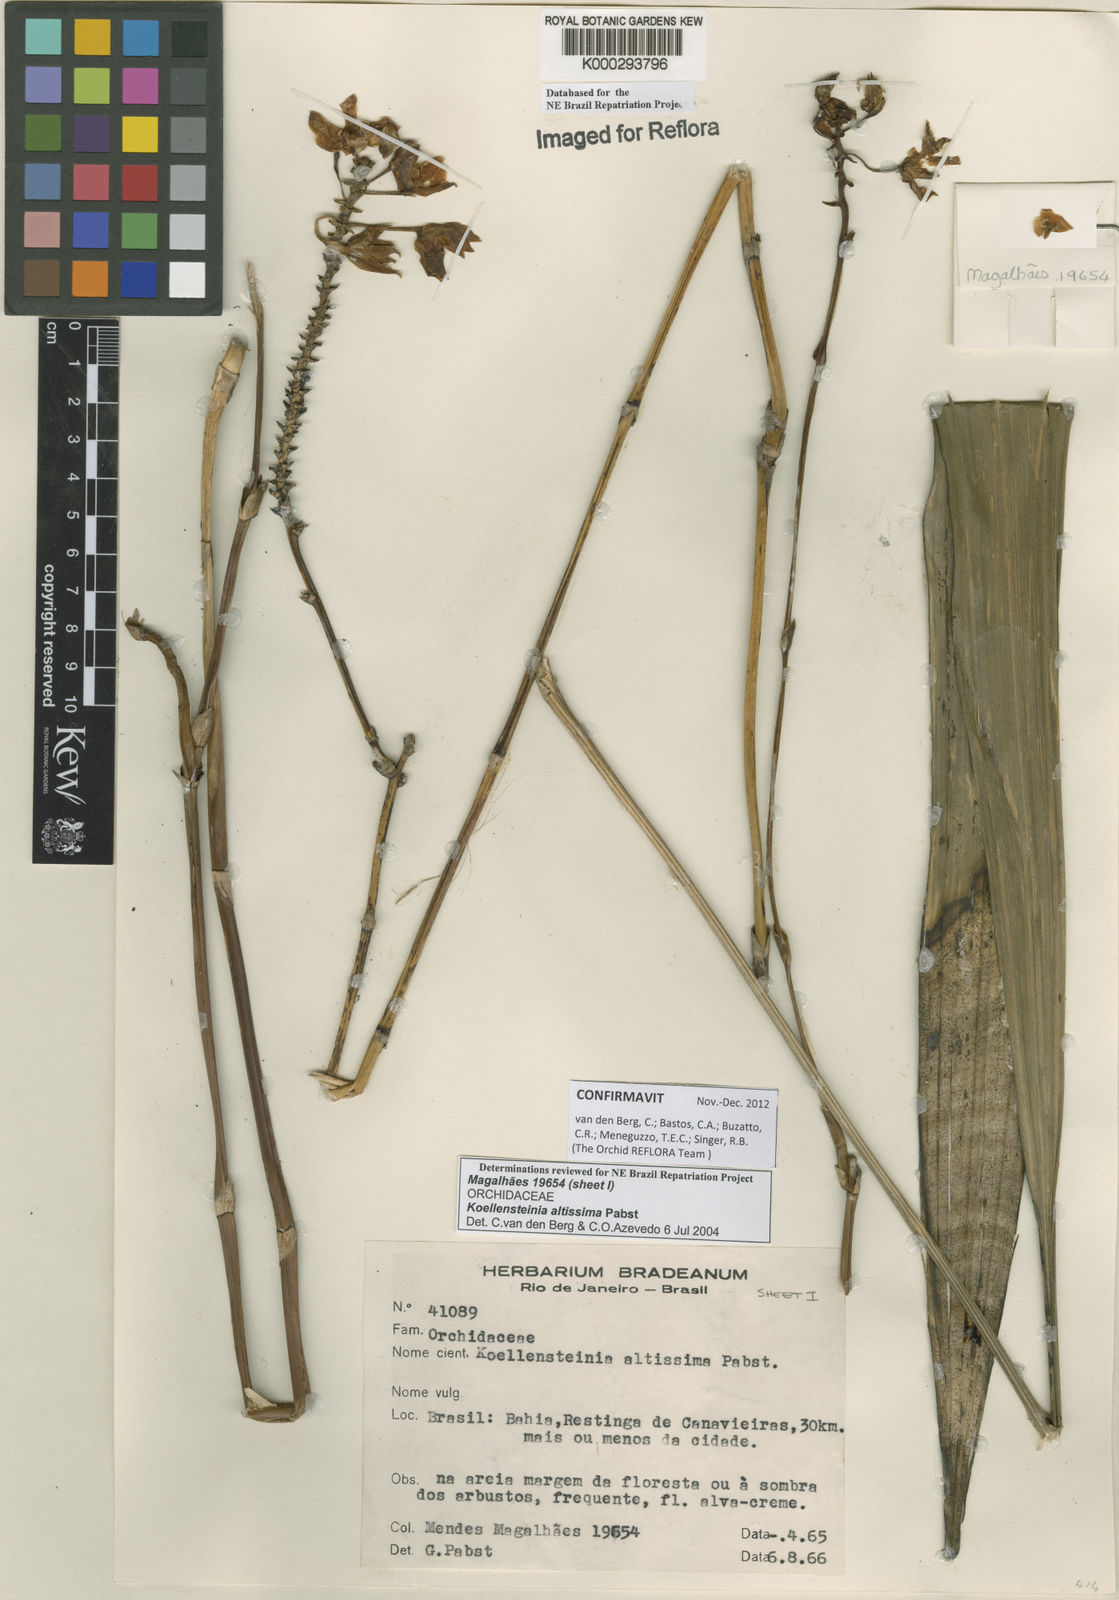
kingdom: Plantae
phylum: Tracheophyta
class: Liliopsida
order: Asparagales
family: Orchidaceae
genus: Koellensteinia
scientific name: Koellensteinia florida
